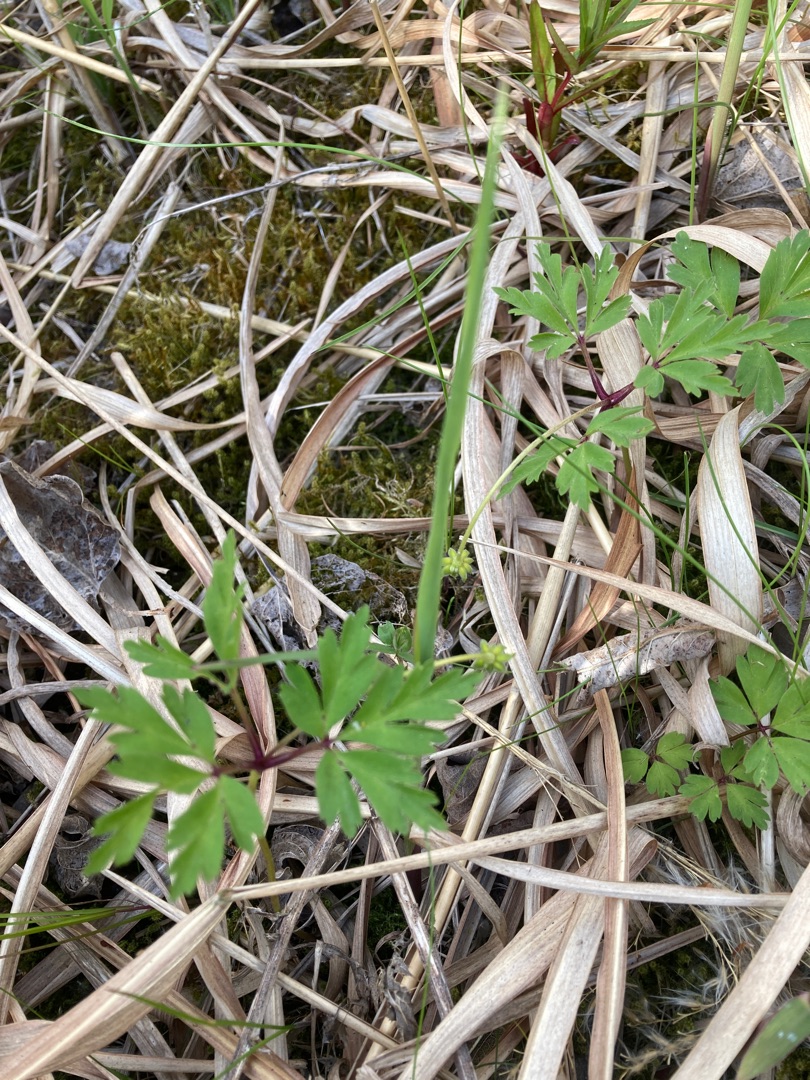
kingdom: Plantae
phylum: Tracheophyta
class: Magnoliopsida
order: Ranunculales
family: Ranunculaceae
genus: Anemone
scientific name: Anemone nemorosa
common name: Hvid anemone
